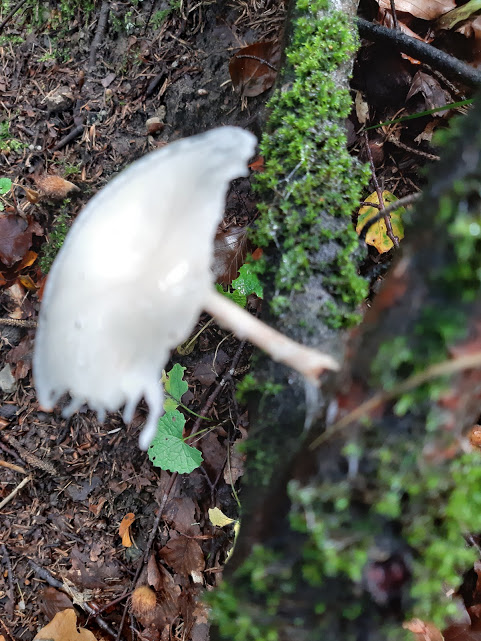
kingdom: Fungi
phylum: Basidiomycota
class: Agaricomycetes
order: Agaricales
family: Physalacriaceae
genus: Mucidula
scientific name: Mucidula mucida
